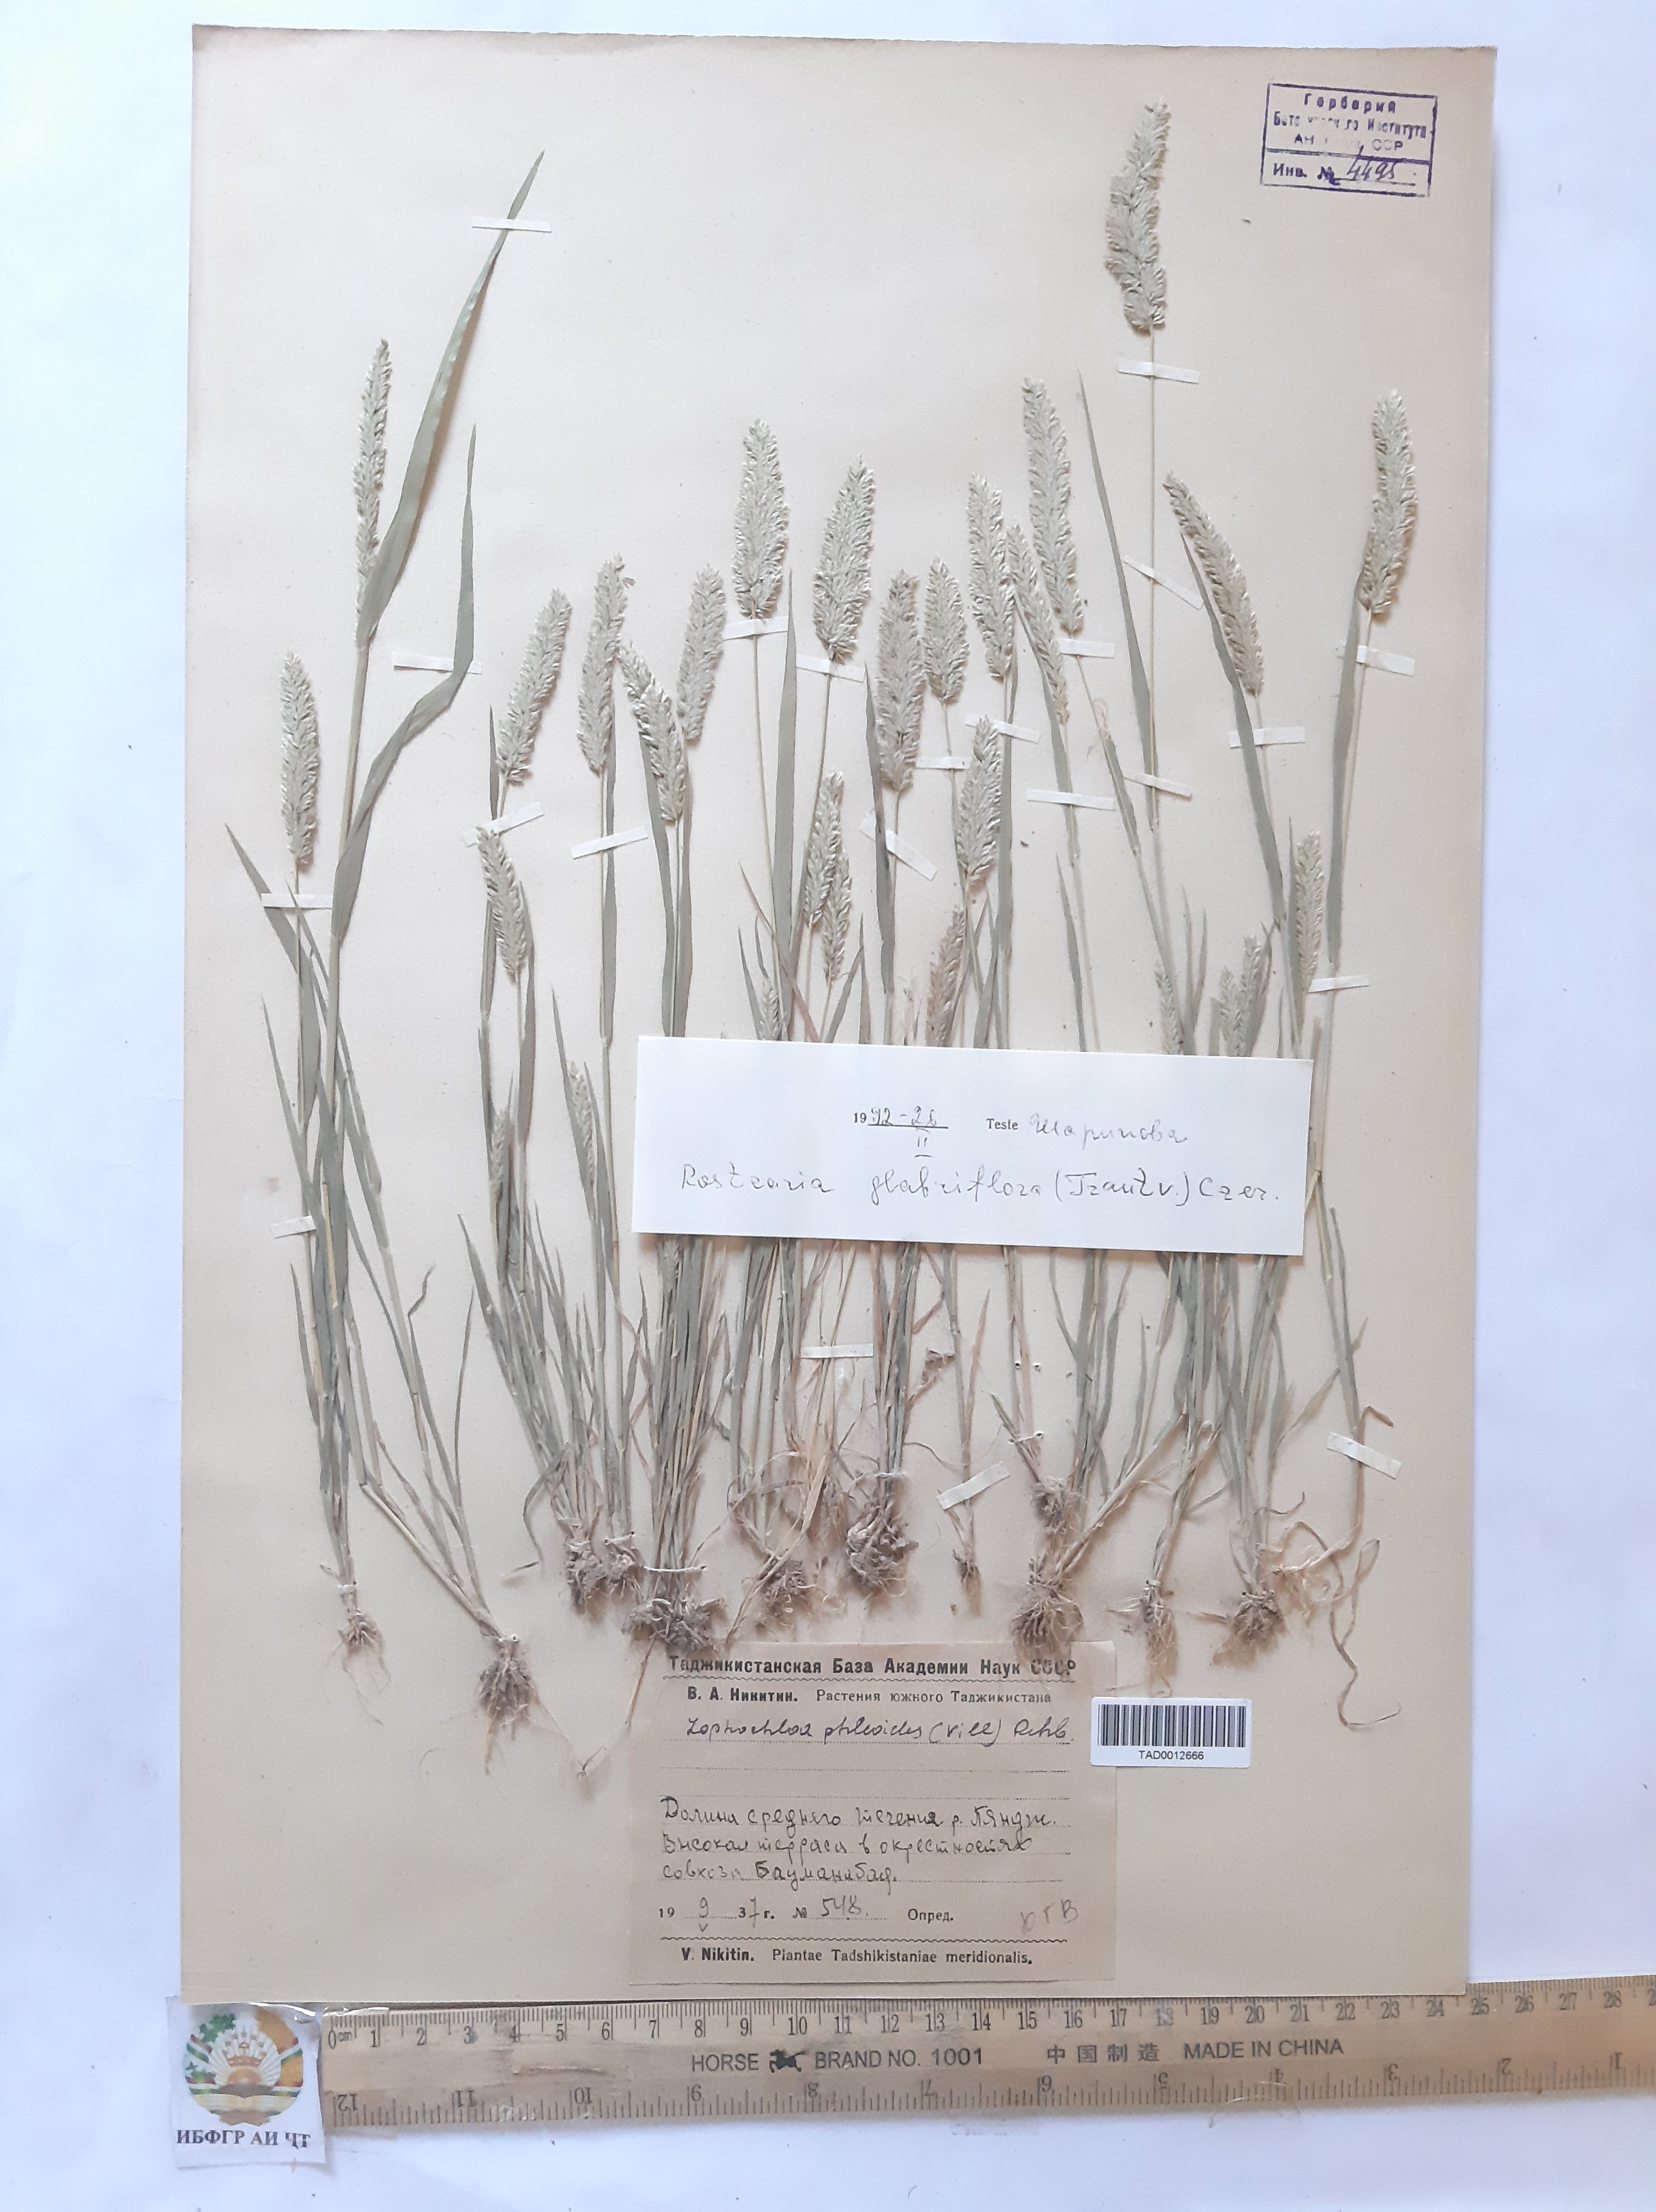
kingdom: Plantae
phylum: Tracheophyta
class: Liliopsida
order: Poales
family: Poaceae
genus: Rostraria
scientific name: Rostraria cristata
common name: Mediterranean hair-grass
